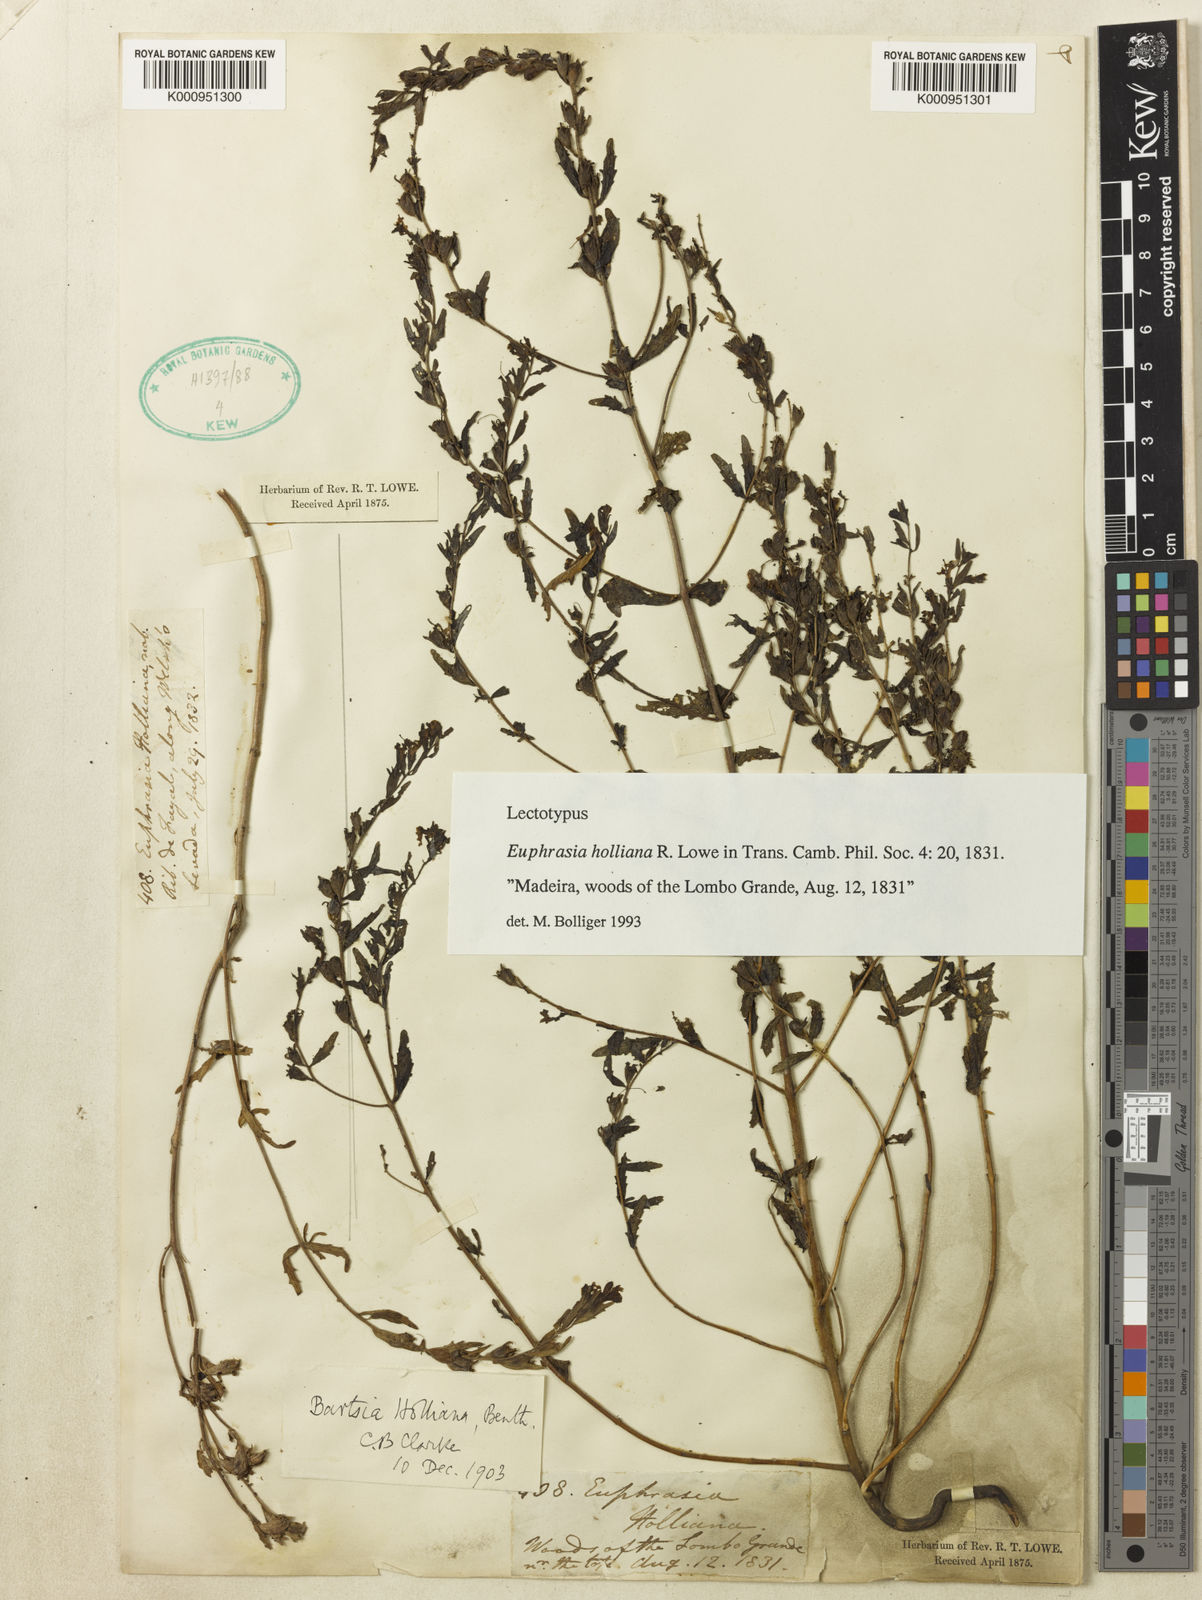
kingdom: Plantae
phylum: Tracheophyta
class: Magnoliopsida
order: Lamiales
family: Orobanchaceae
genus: Odontites
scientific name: Odontites hollianus
